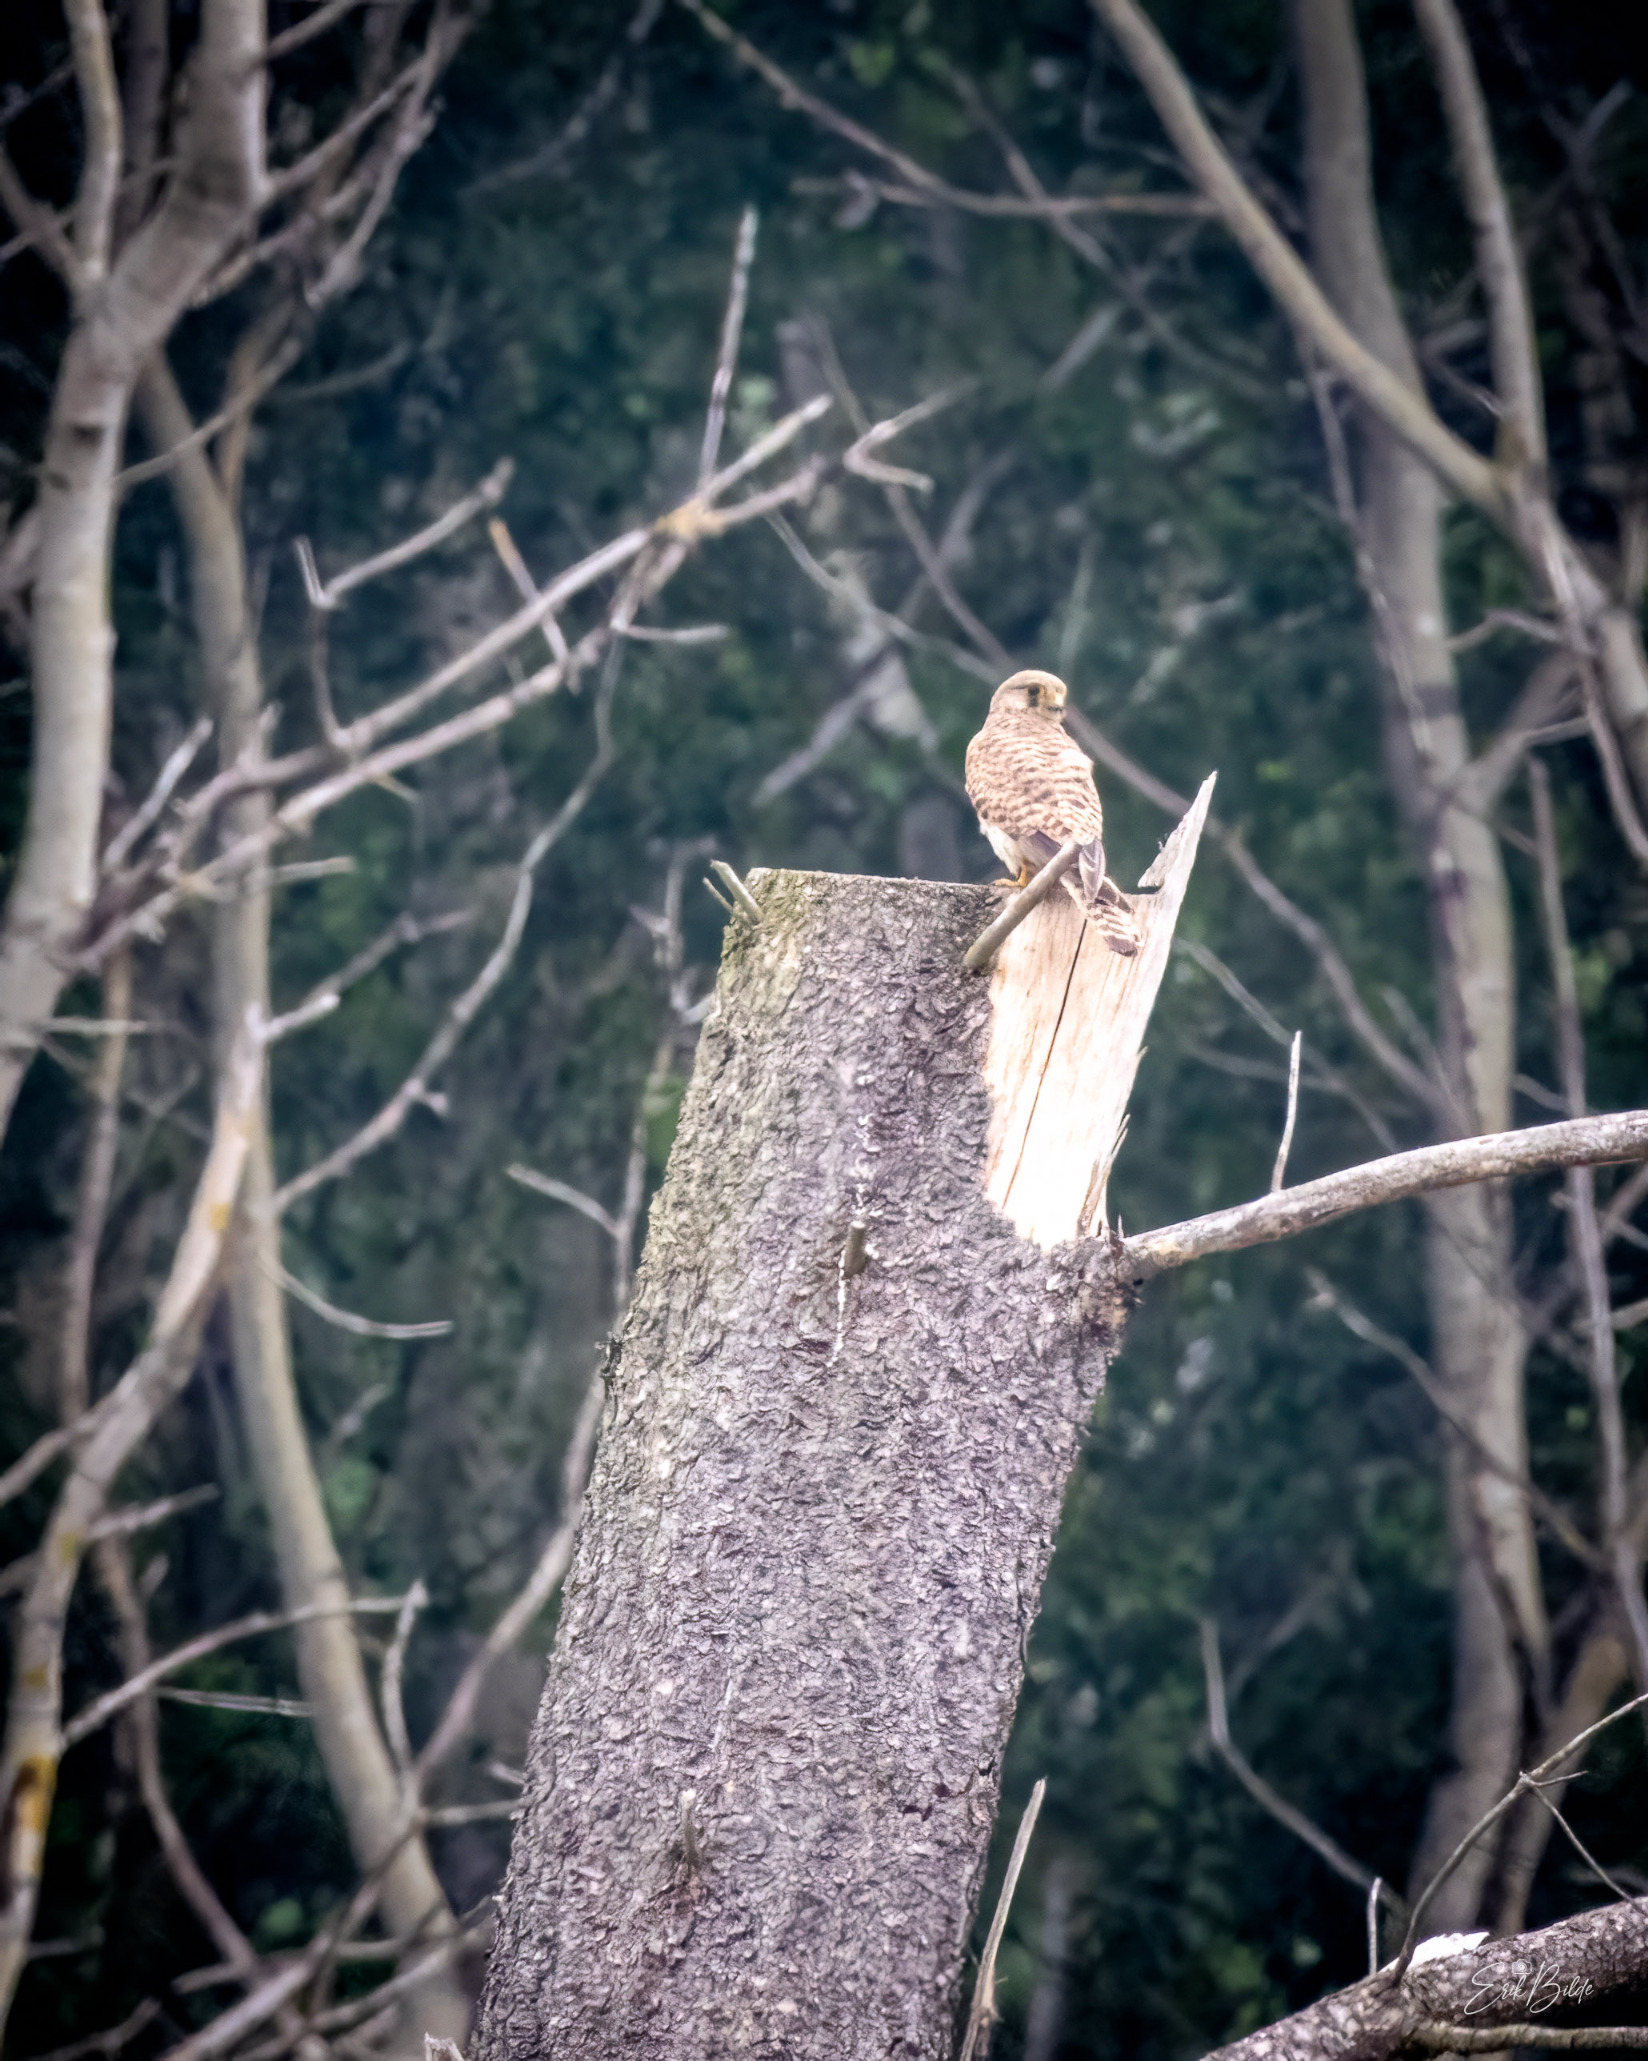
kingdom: Animalia
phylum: Chordata
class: Aves
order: Falconiformes
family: Falconidae
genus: Falco
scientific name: Falco tinnunculus
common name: Tårnfalk
